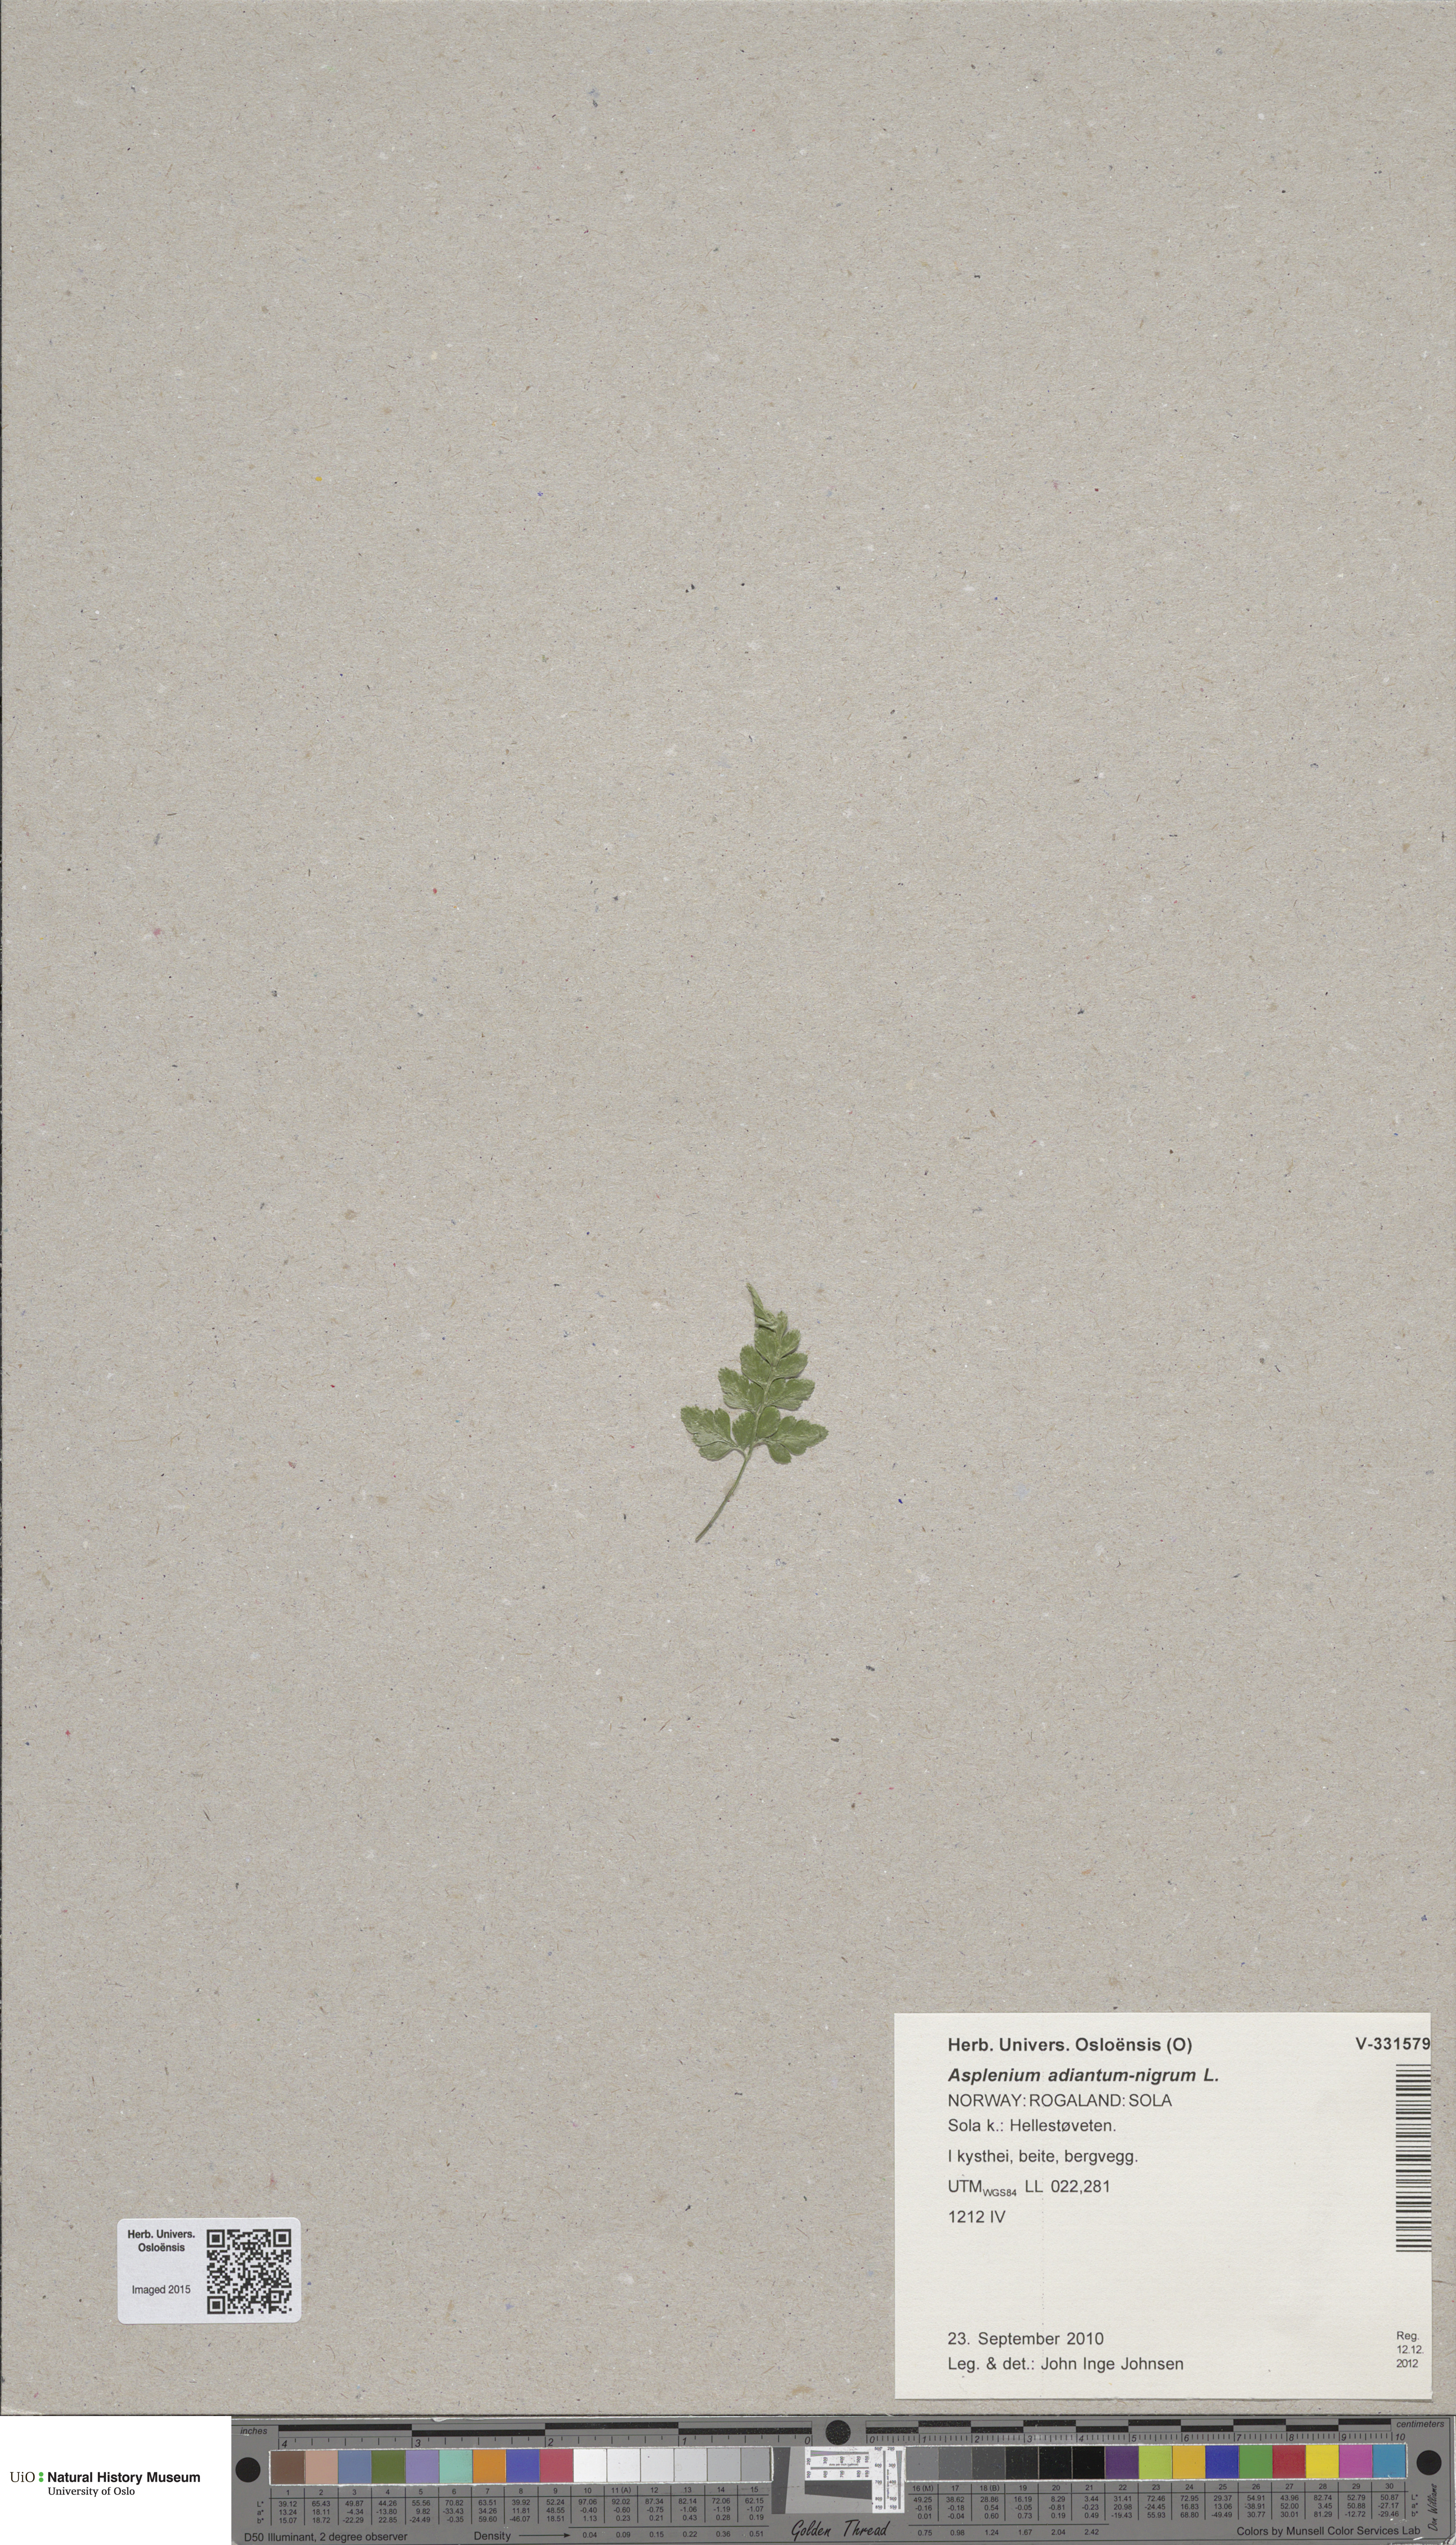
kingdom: Plantae
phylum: Tracheophyta
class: Polypodiopsida
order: Polypodiales
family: Aspleniaceae
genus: Asplenium
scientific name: Asplenium adiantum-nigrum
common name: Black spleenwort
